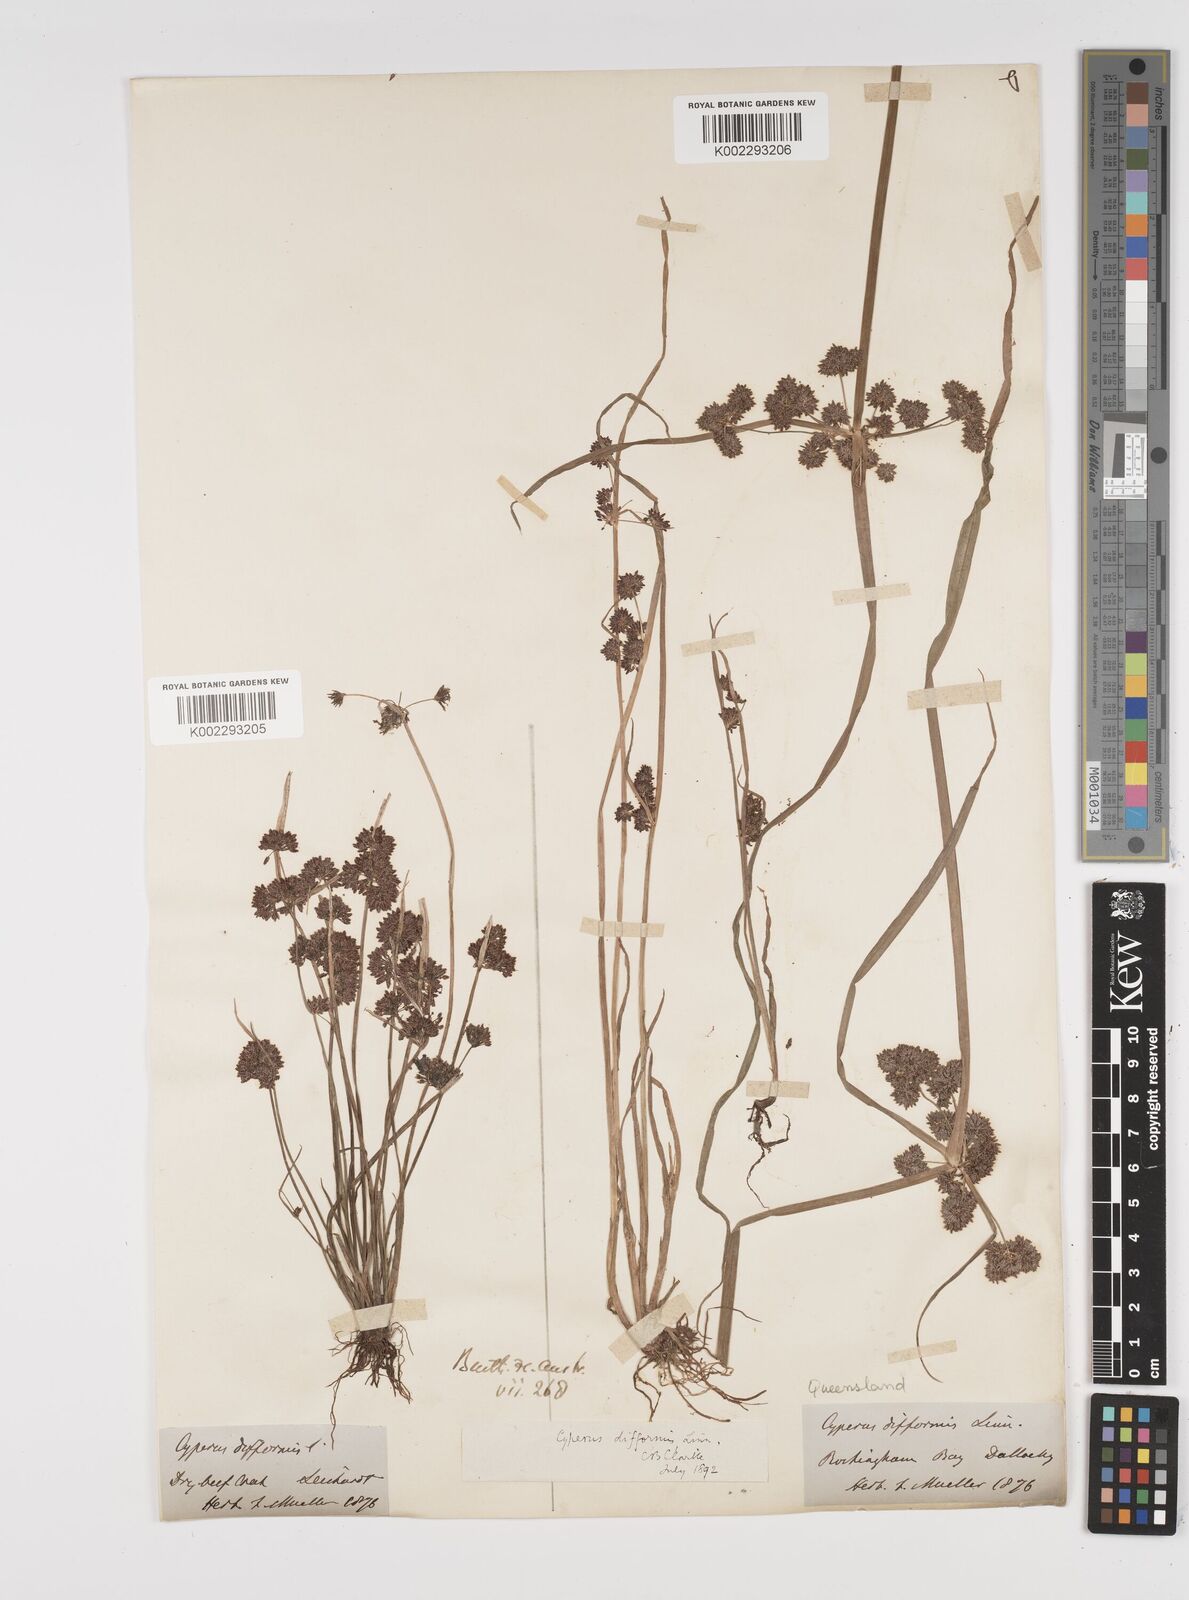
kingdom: Plantae
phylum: Tracheophyta
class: Liliopsida
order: Poales
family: Cyperaceae
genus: Cyperus
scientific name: Cyperus difformis
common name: Variable flatsedge
